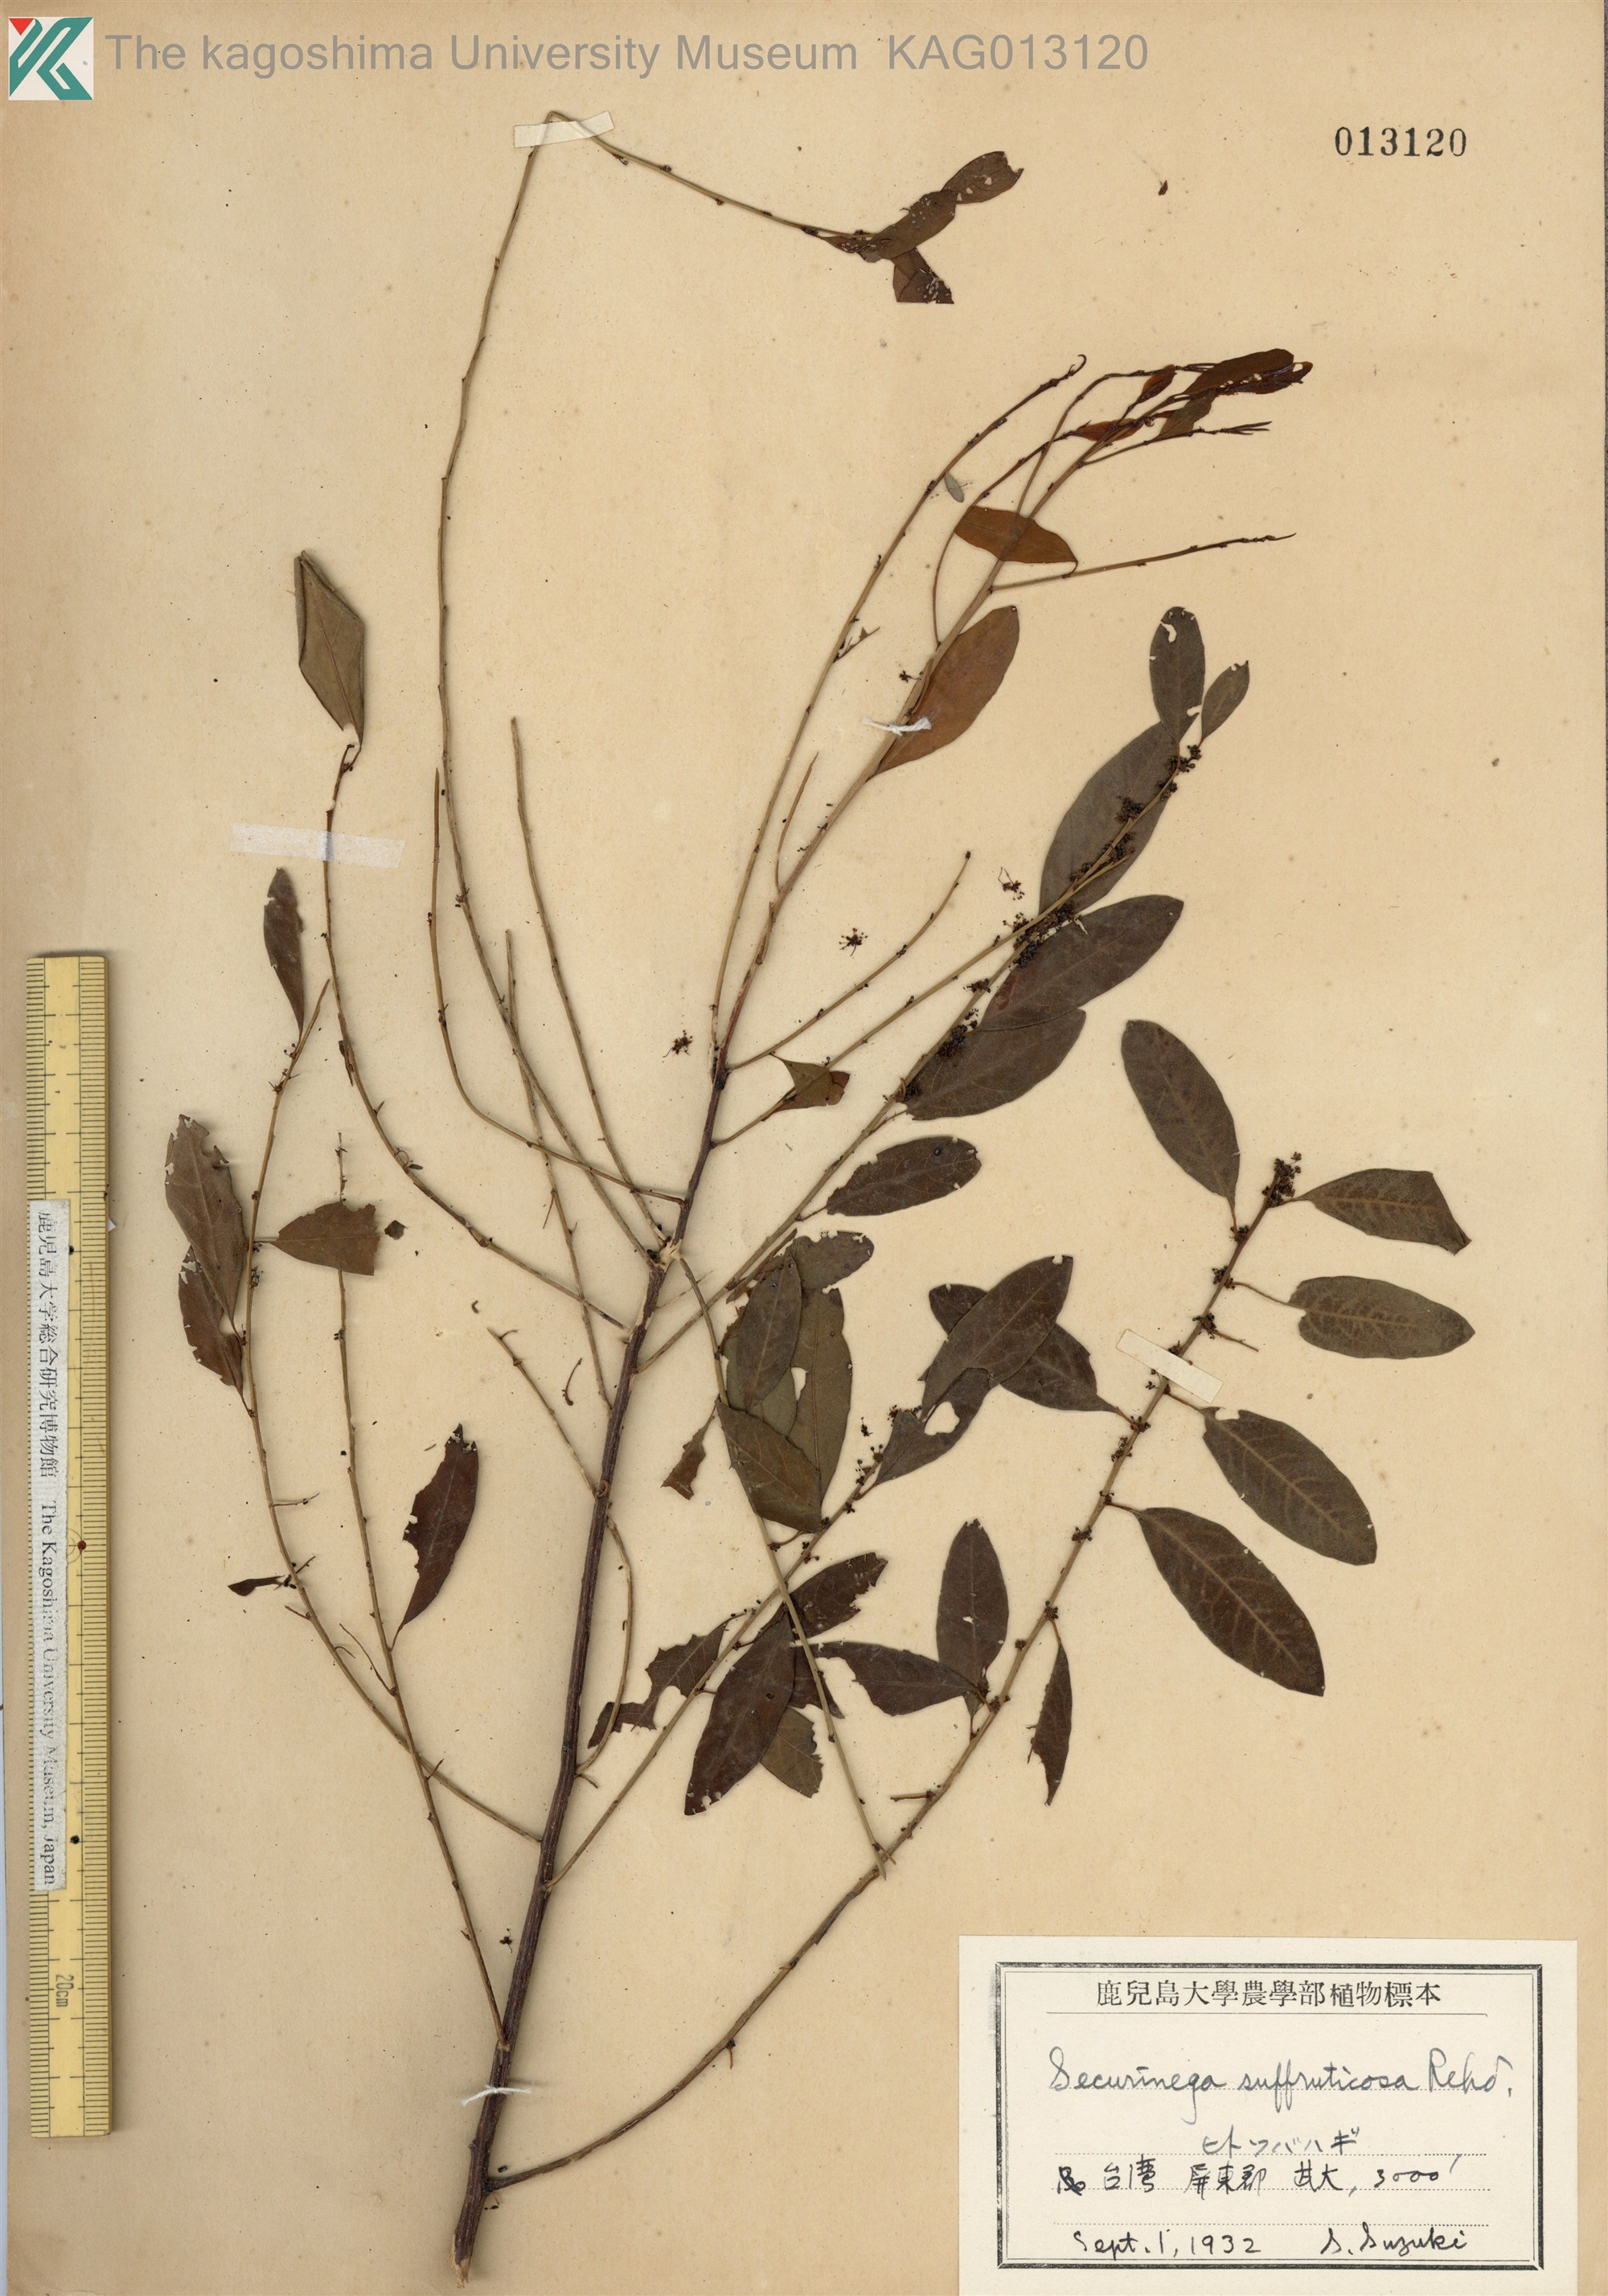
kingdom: Plantae
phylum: Tracheophyta
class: Magnoliopsida
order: Malpighiales
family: Phyllanthaceae
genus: Flueggea
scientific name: Flueggea suffruticosa
